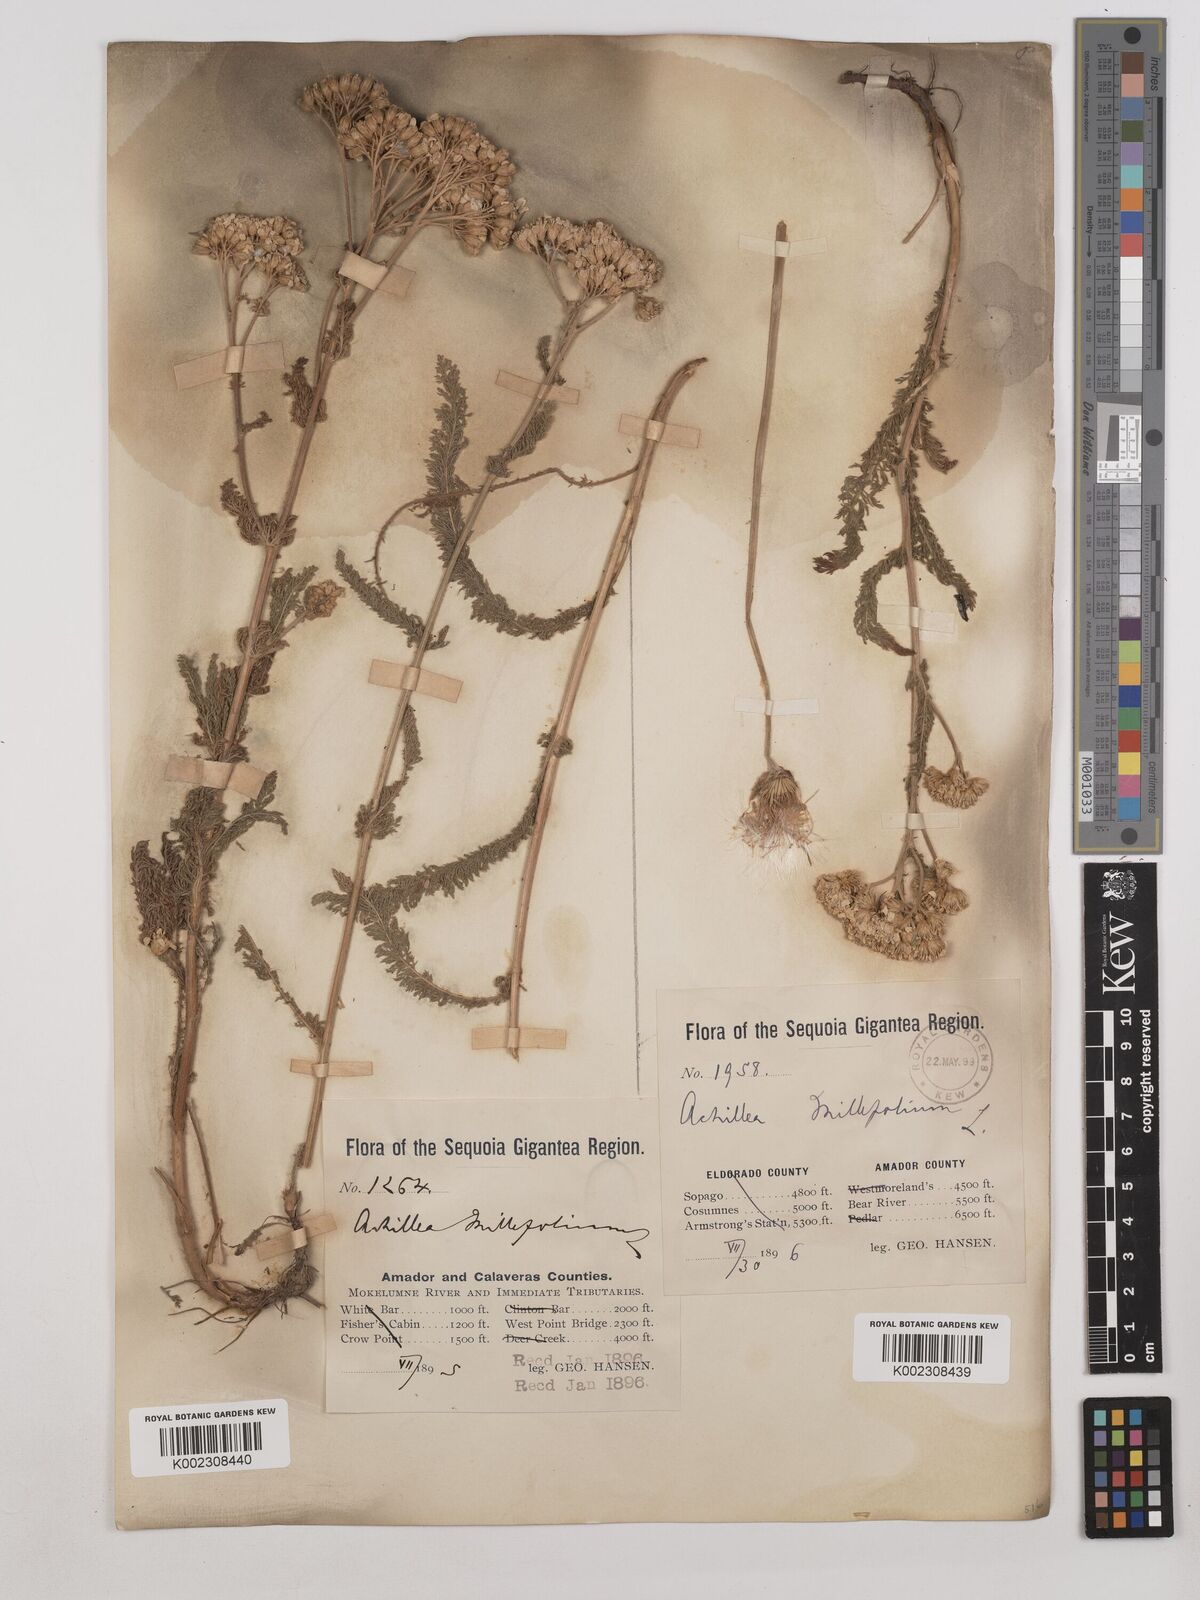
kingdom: Plantae
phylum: Tracheophyta
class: Magnoliopsida
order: Asterales
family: Asteraceae
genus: Achillea
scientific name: Achillea millefolium
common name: Yarrow
